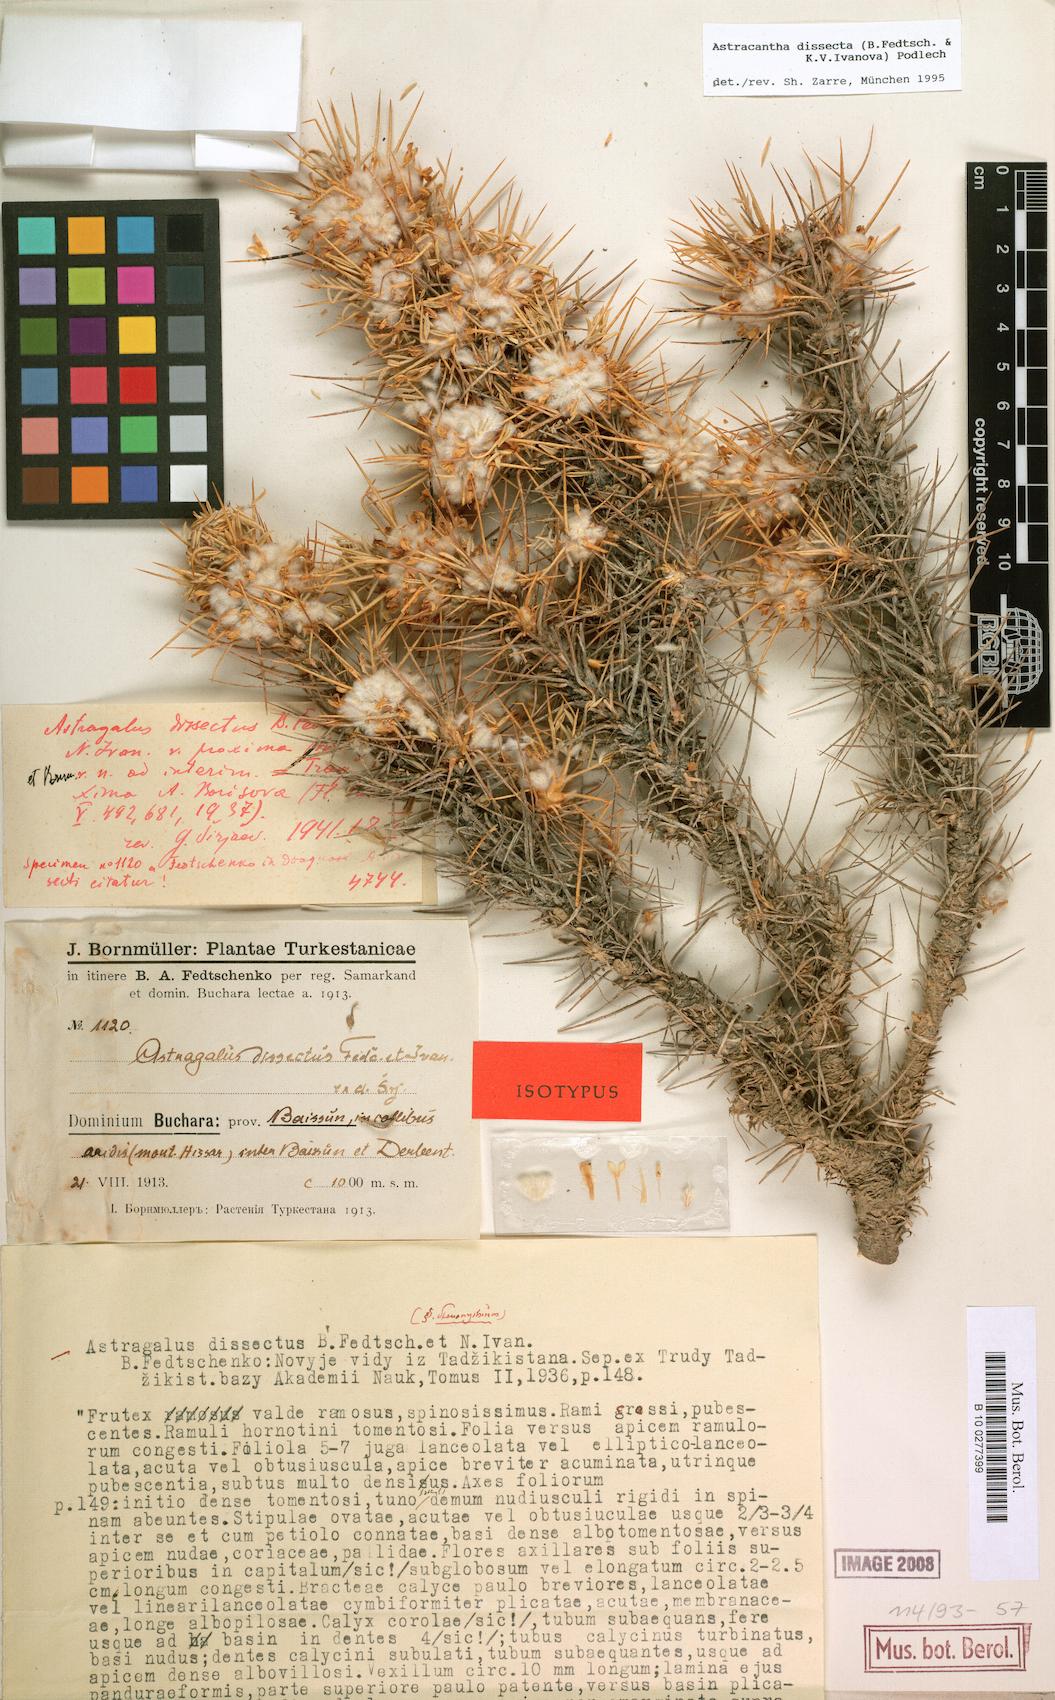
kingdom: Plantae
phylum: Tracheophyta
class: Magnoliopsida
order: Fabales
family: Fabaceae
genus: Astragalus
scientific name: Astragalus dissectus
